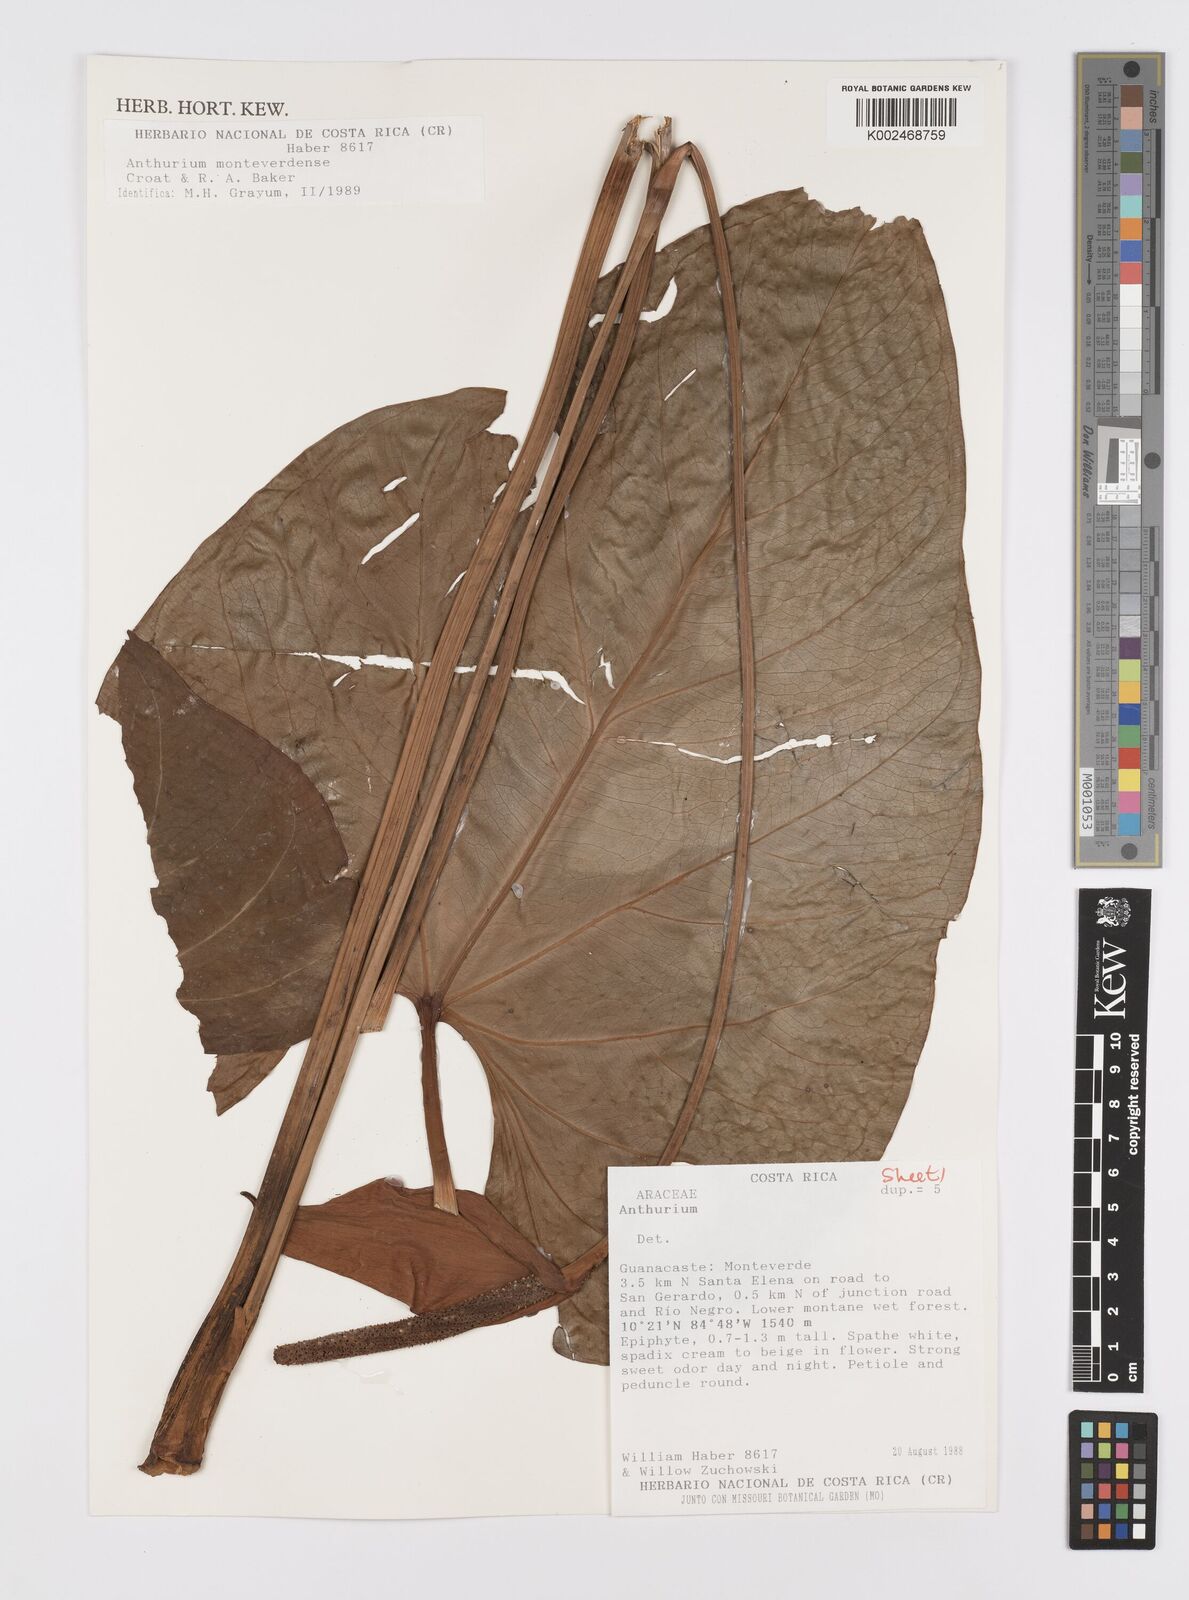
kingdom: Plantae
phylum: Tracheophyta
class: Liliopsida
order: Alismatales
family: Araceae
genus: Anthurium
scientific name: Anthurium monteverdense
